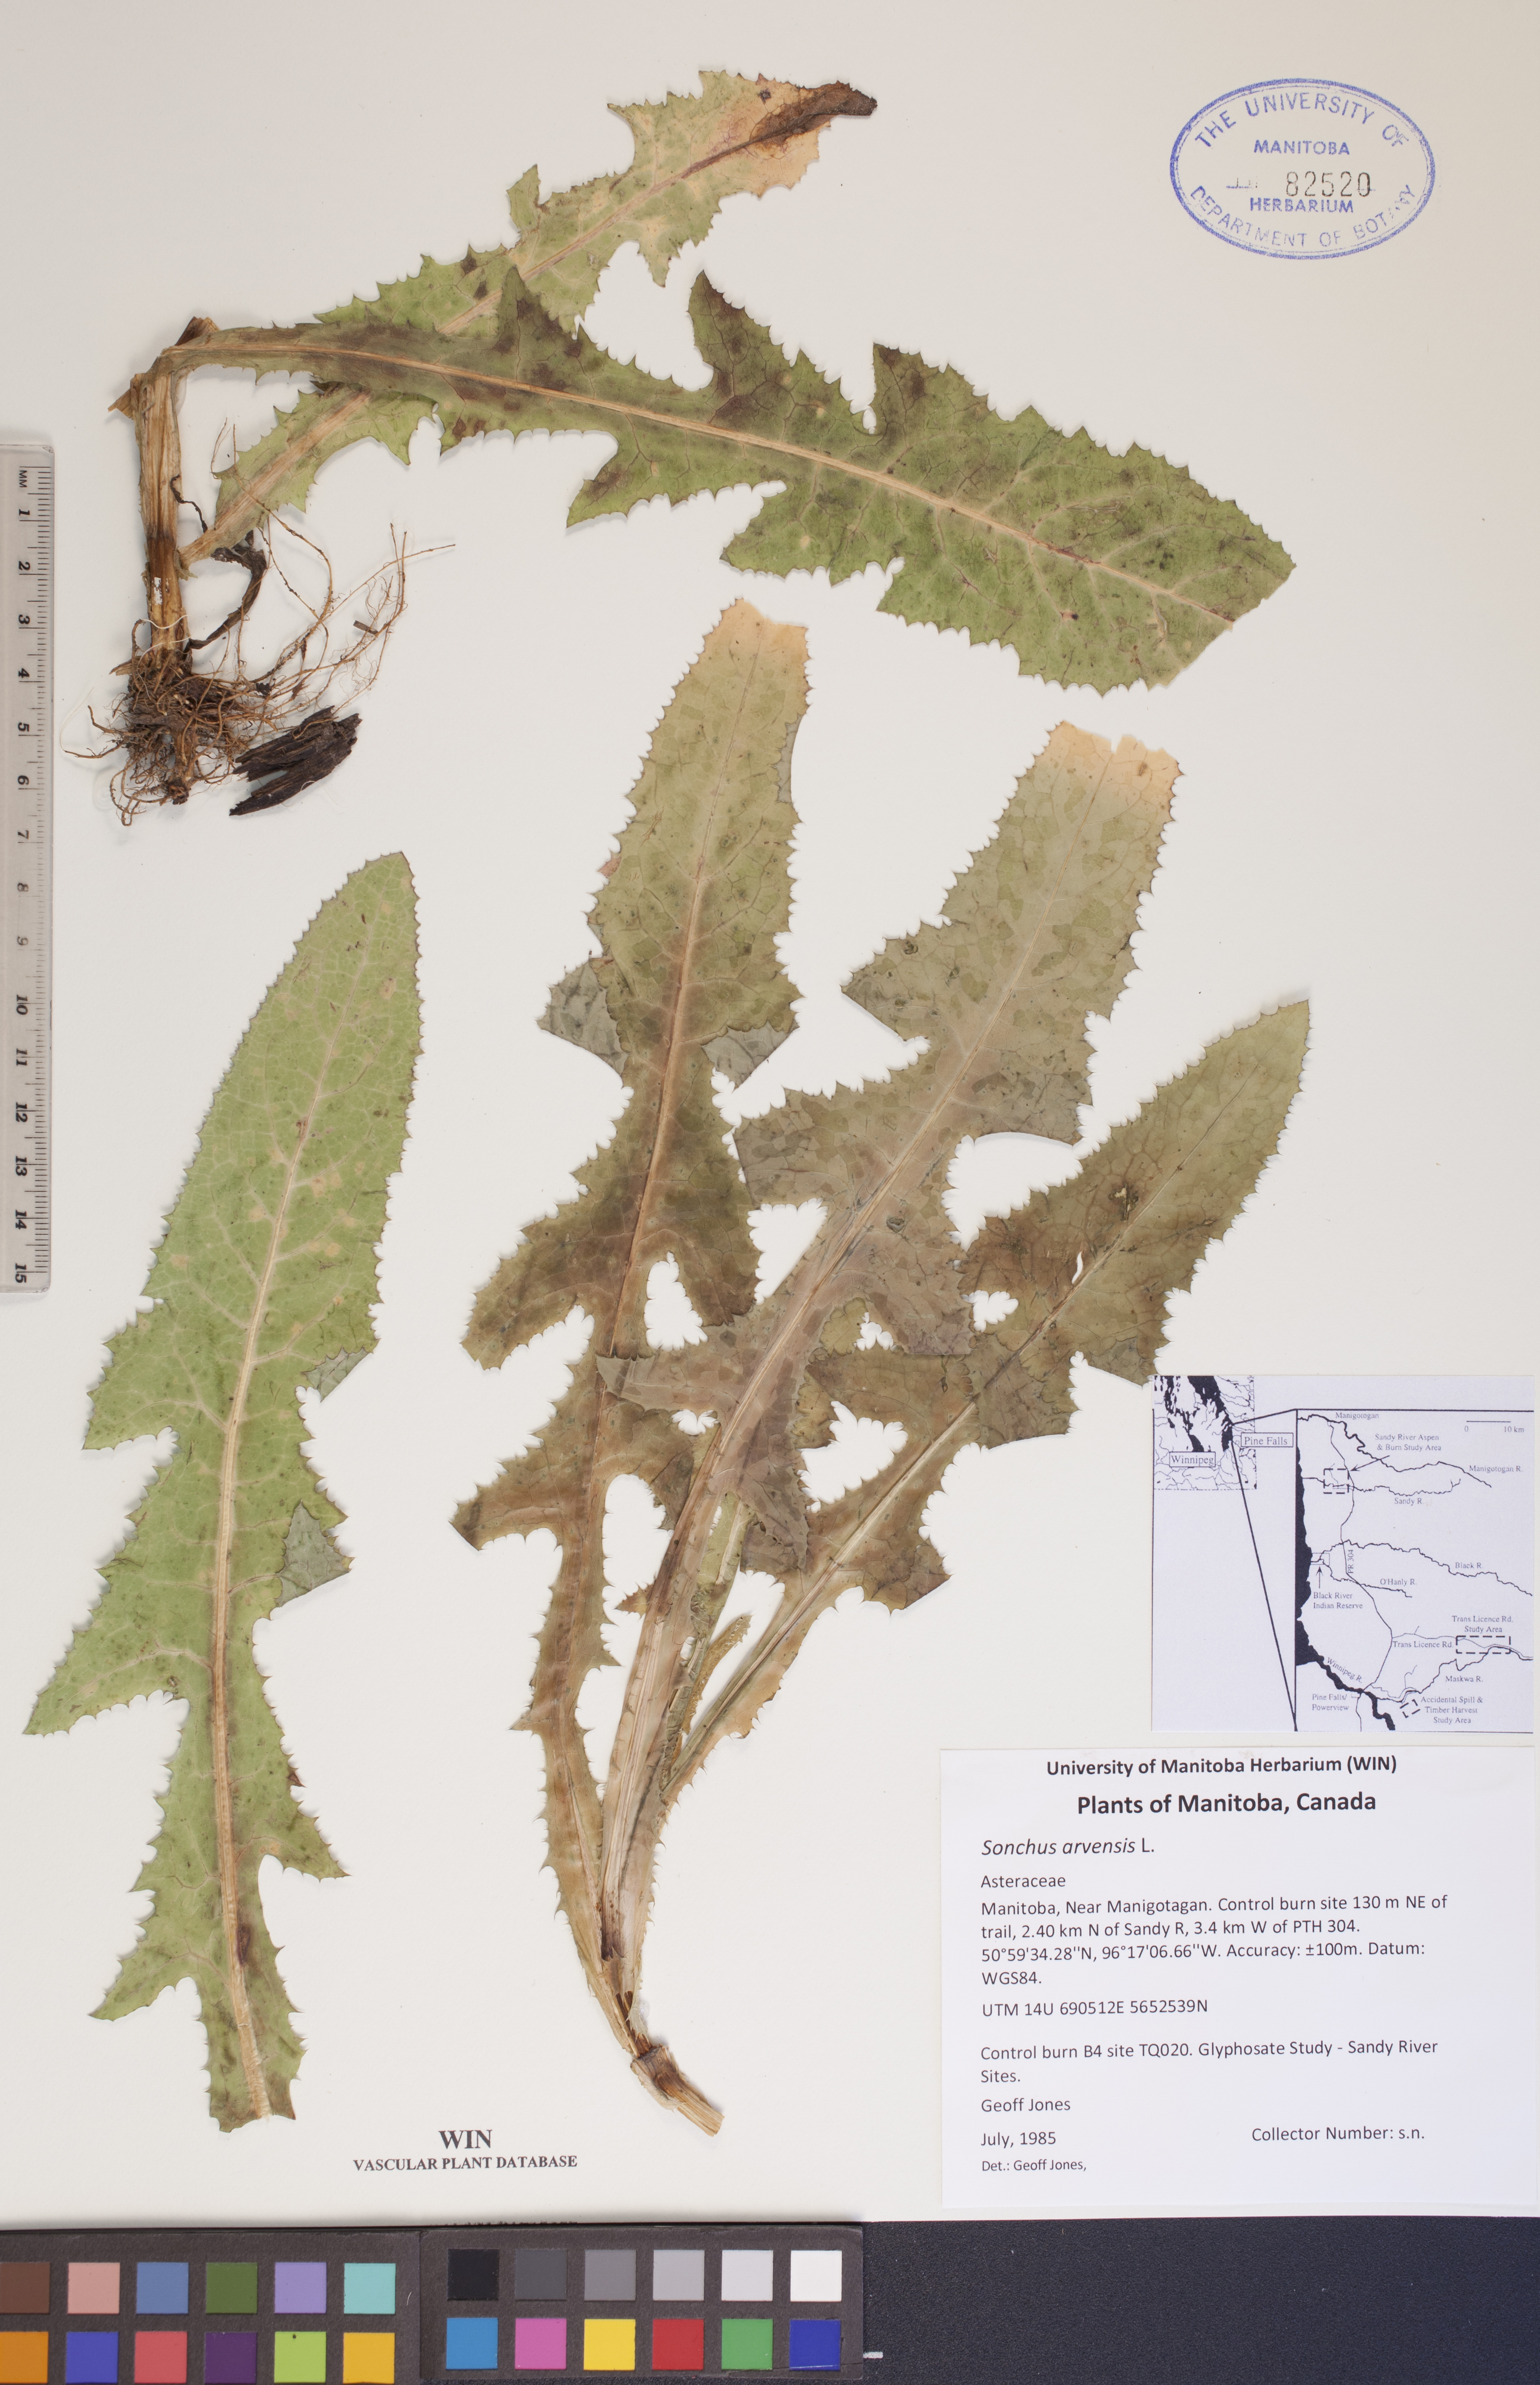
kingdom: Plantae
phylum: Tracheophyta
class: Magnoliopsida
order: Asterales
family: Asteraceae
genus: Sonchus
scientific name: Sonchus arvensis
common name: Perennial sow-thistle
